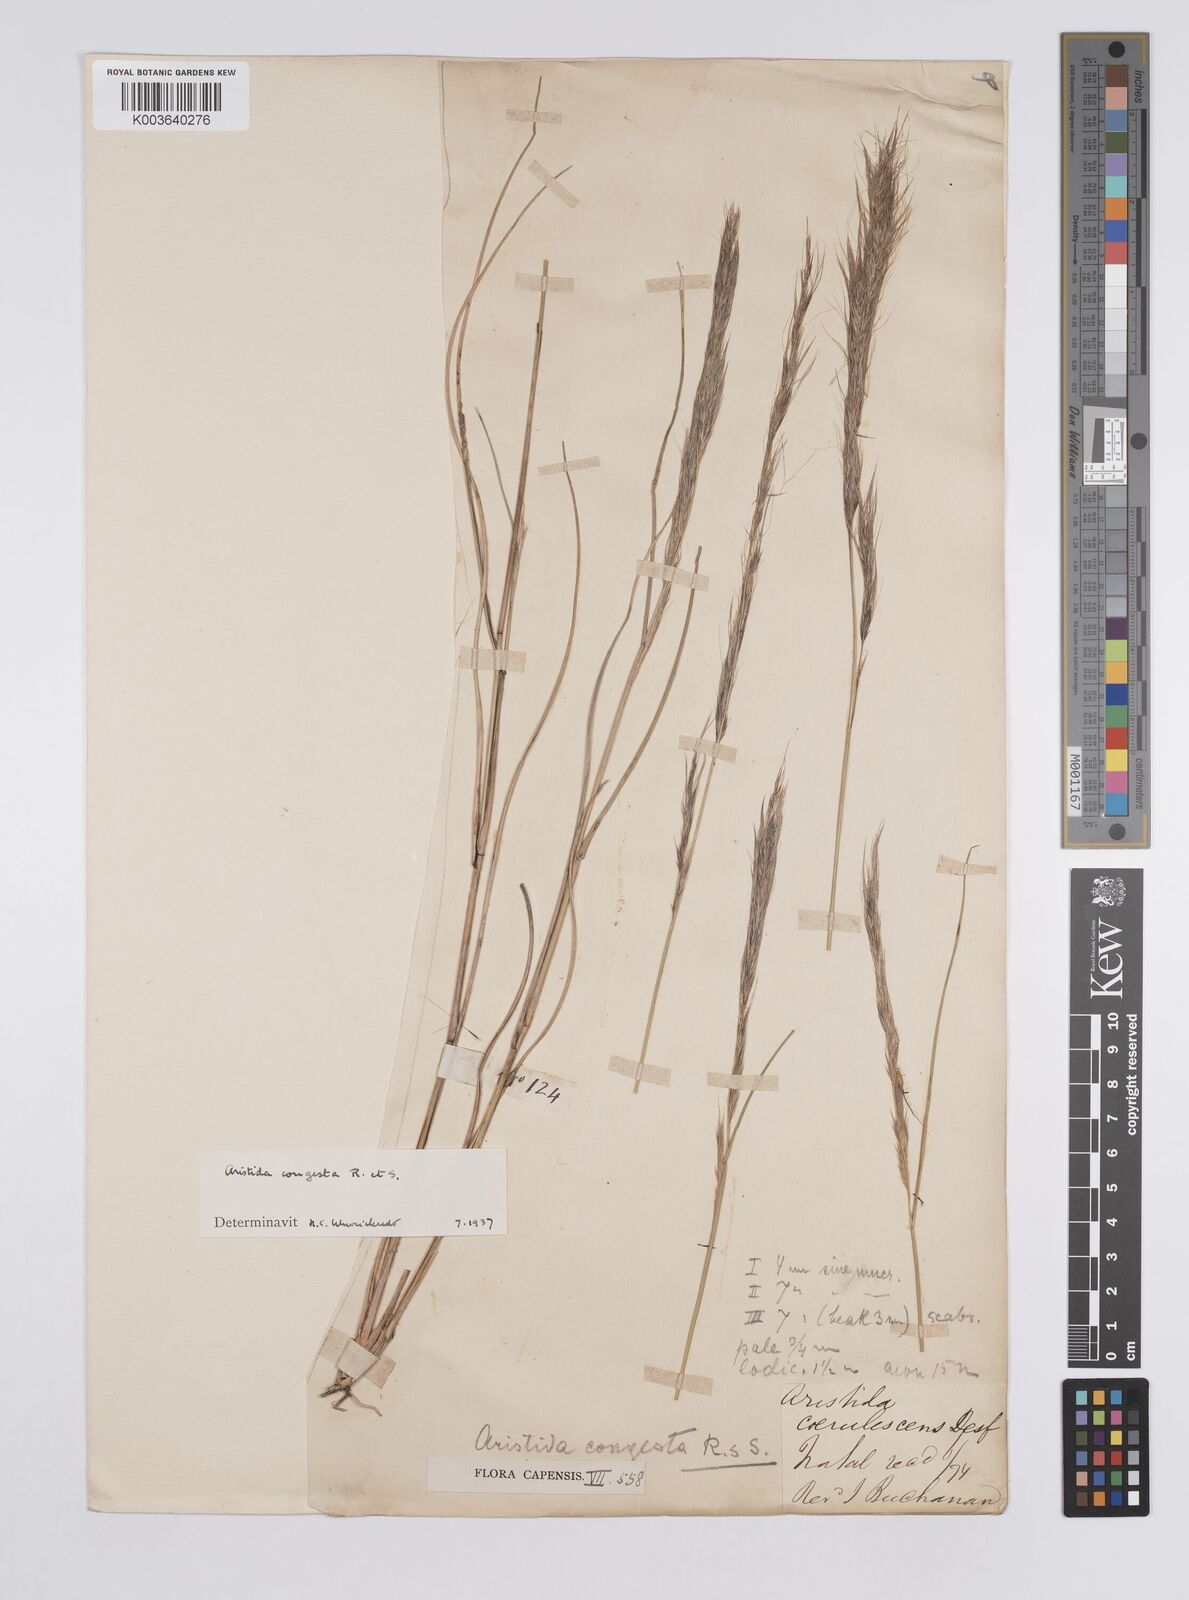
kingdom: Plantae
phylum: Tracheophyta
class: Liliopsida
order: Poales
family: Poaceae
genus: Aristida
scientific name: Aristida congesta
